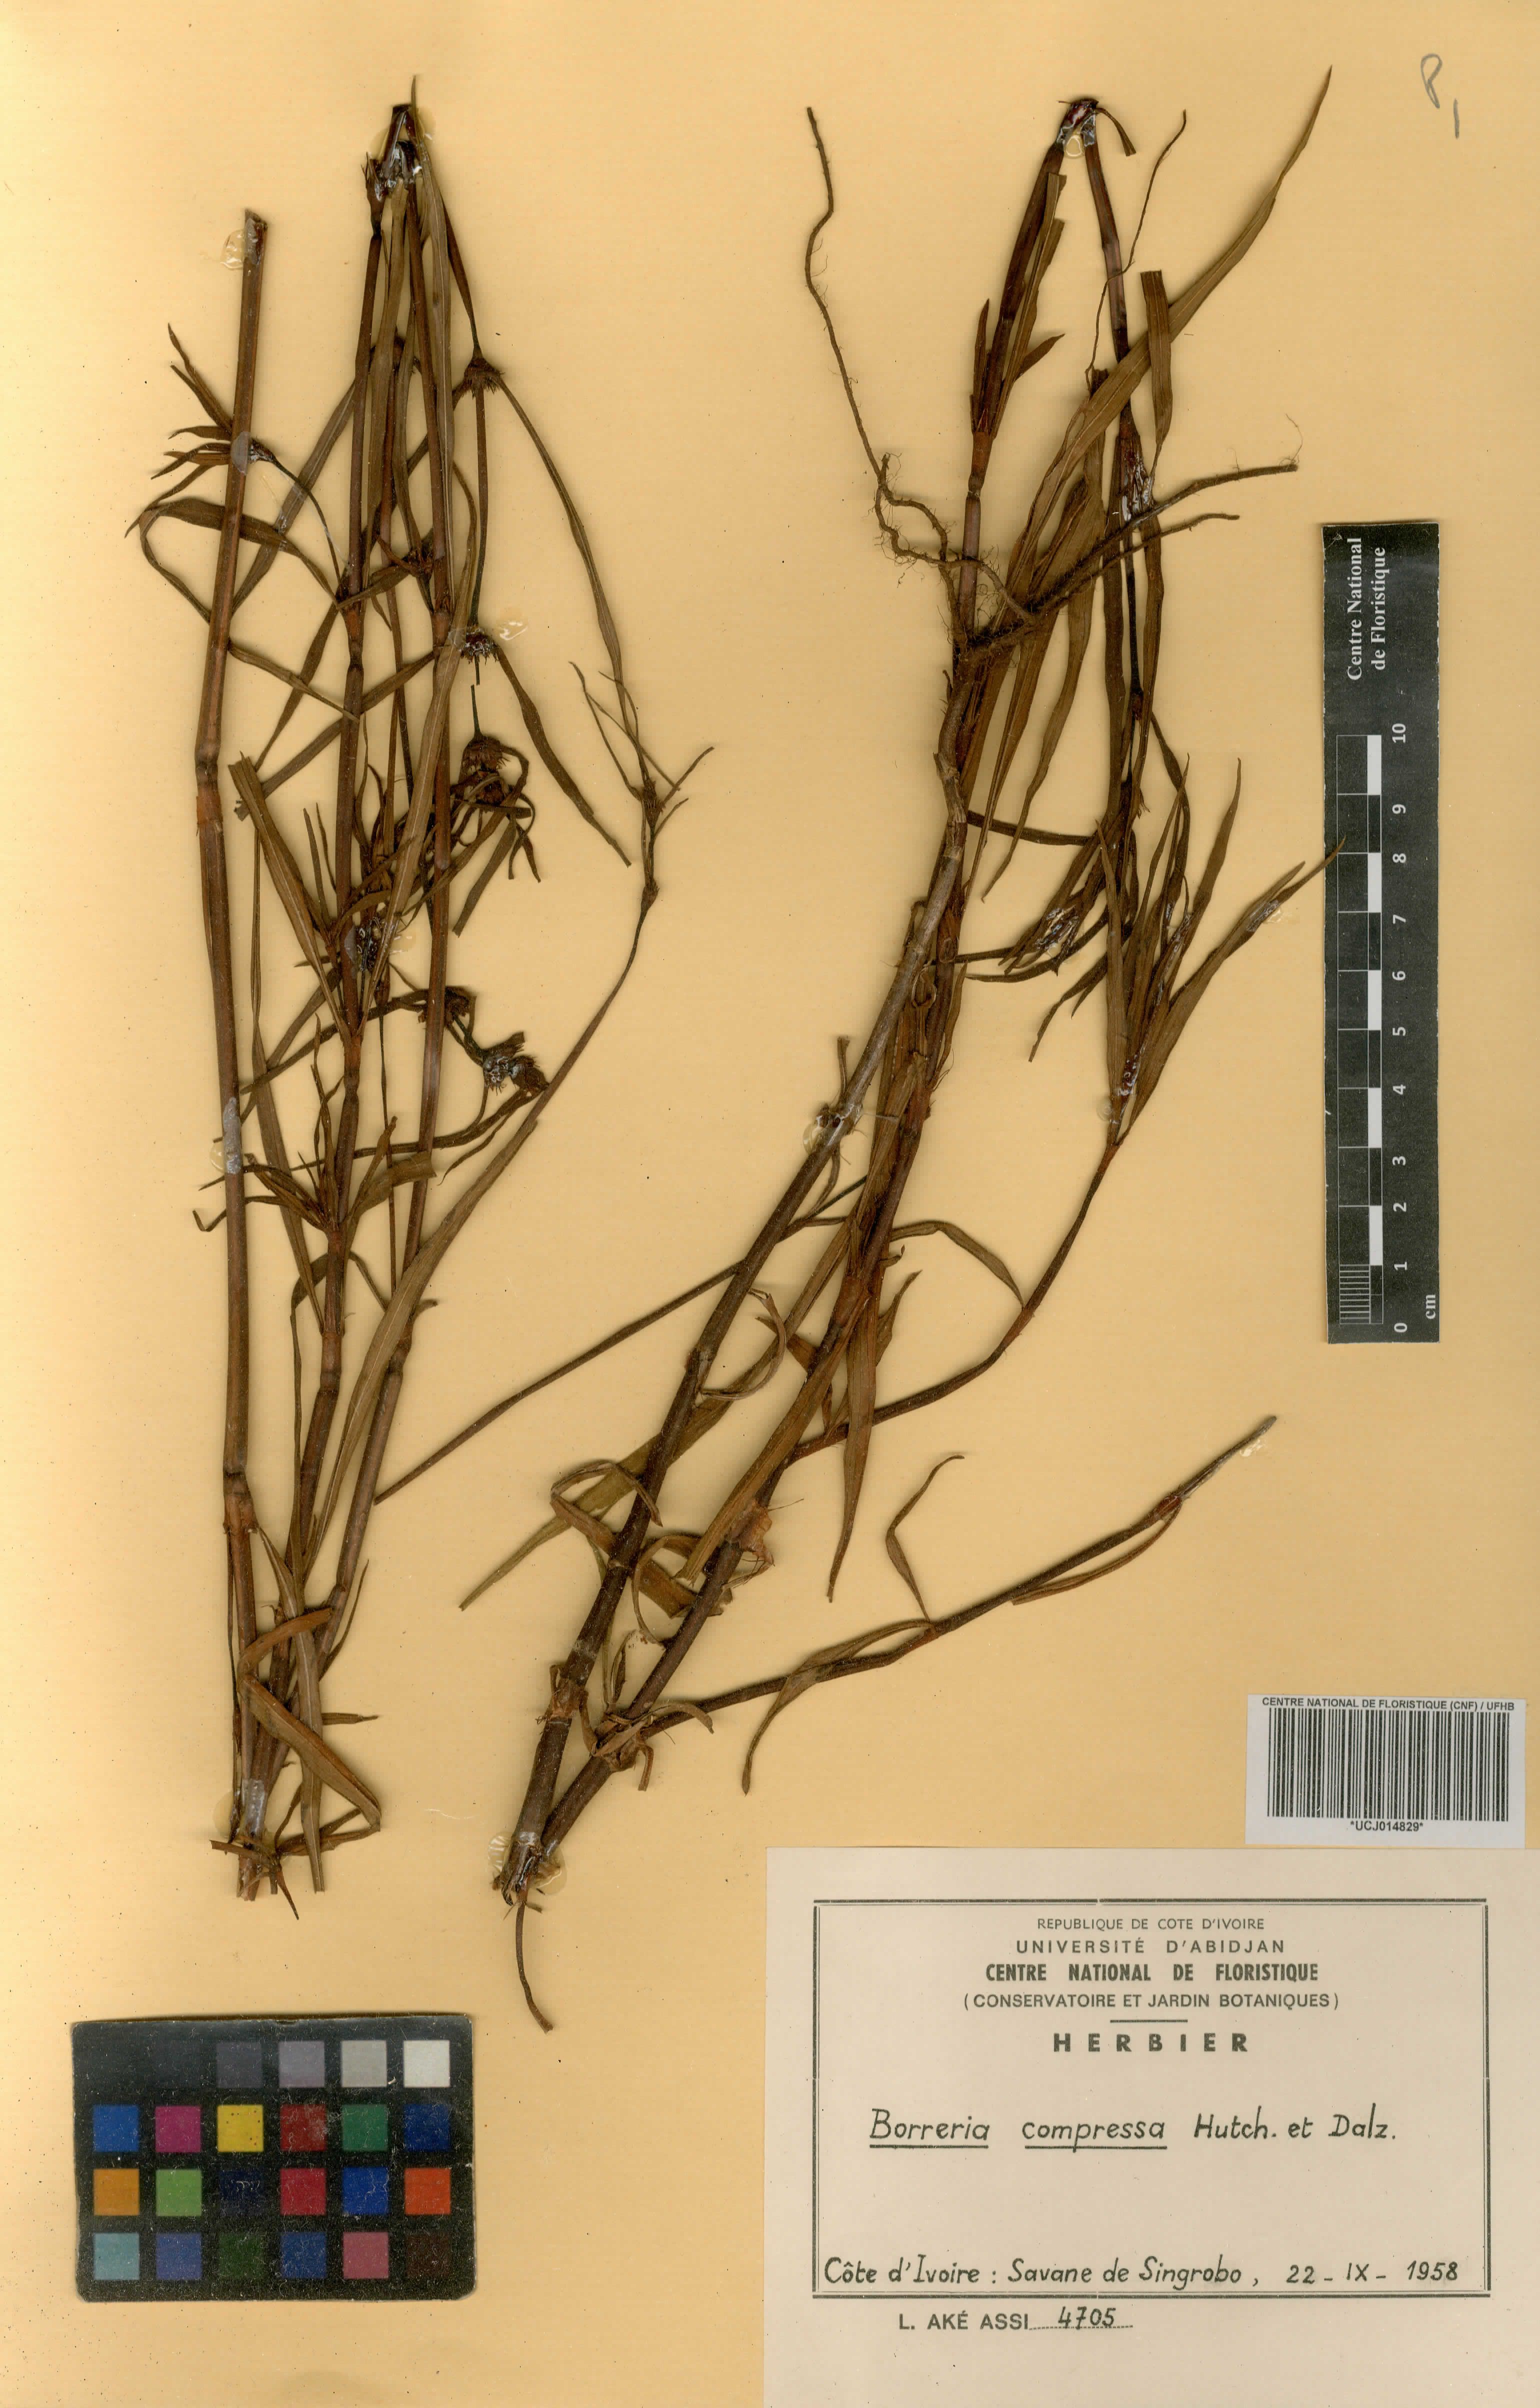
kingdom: Plantae
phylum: Tracheophyta
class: Magnoliopsida
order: Gentianales
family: Rubiaceae
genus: Spermacoce
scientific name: Spermacoce hepperiana
